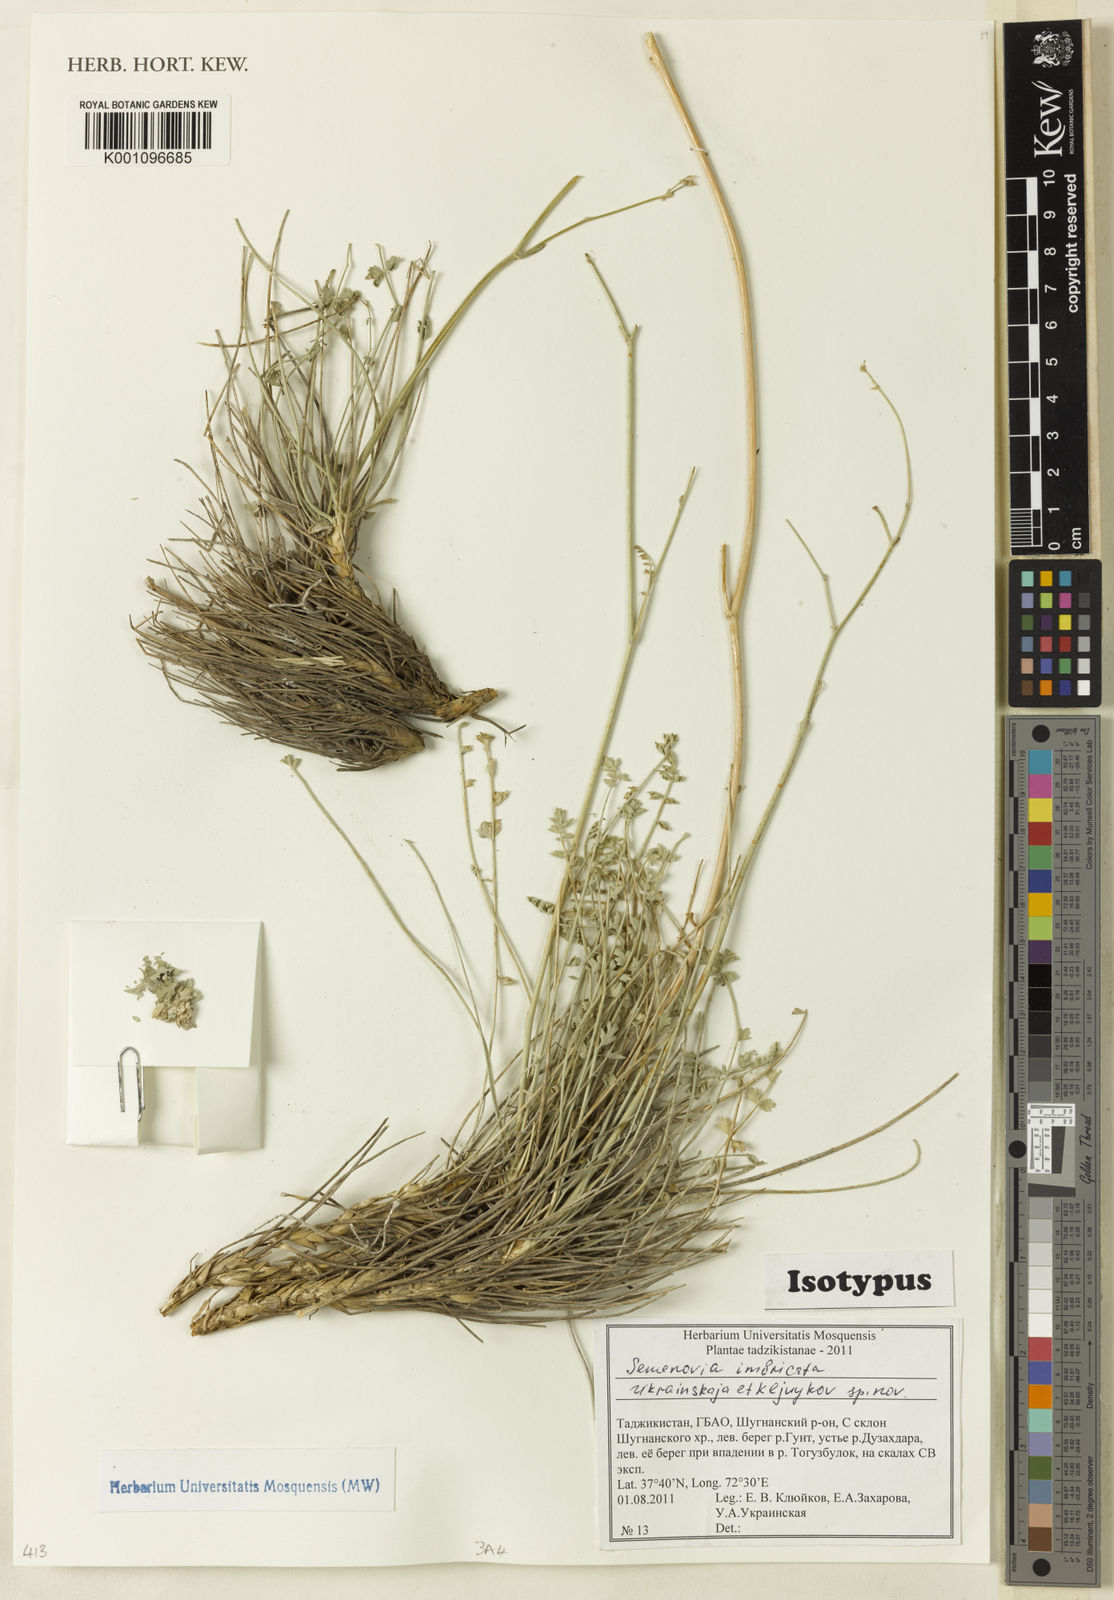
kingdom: Plantae
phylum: Tracheophyta
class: Magnoliopsida
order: Apiales
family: Apiaceae
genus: Semenovia
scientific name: Semenovia imbricata
